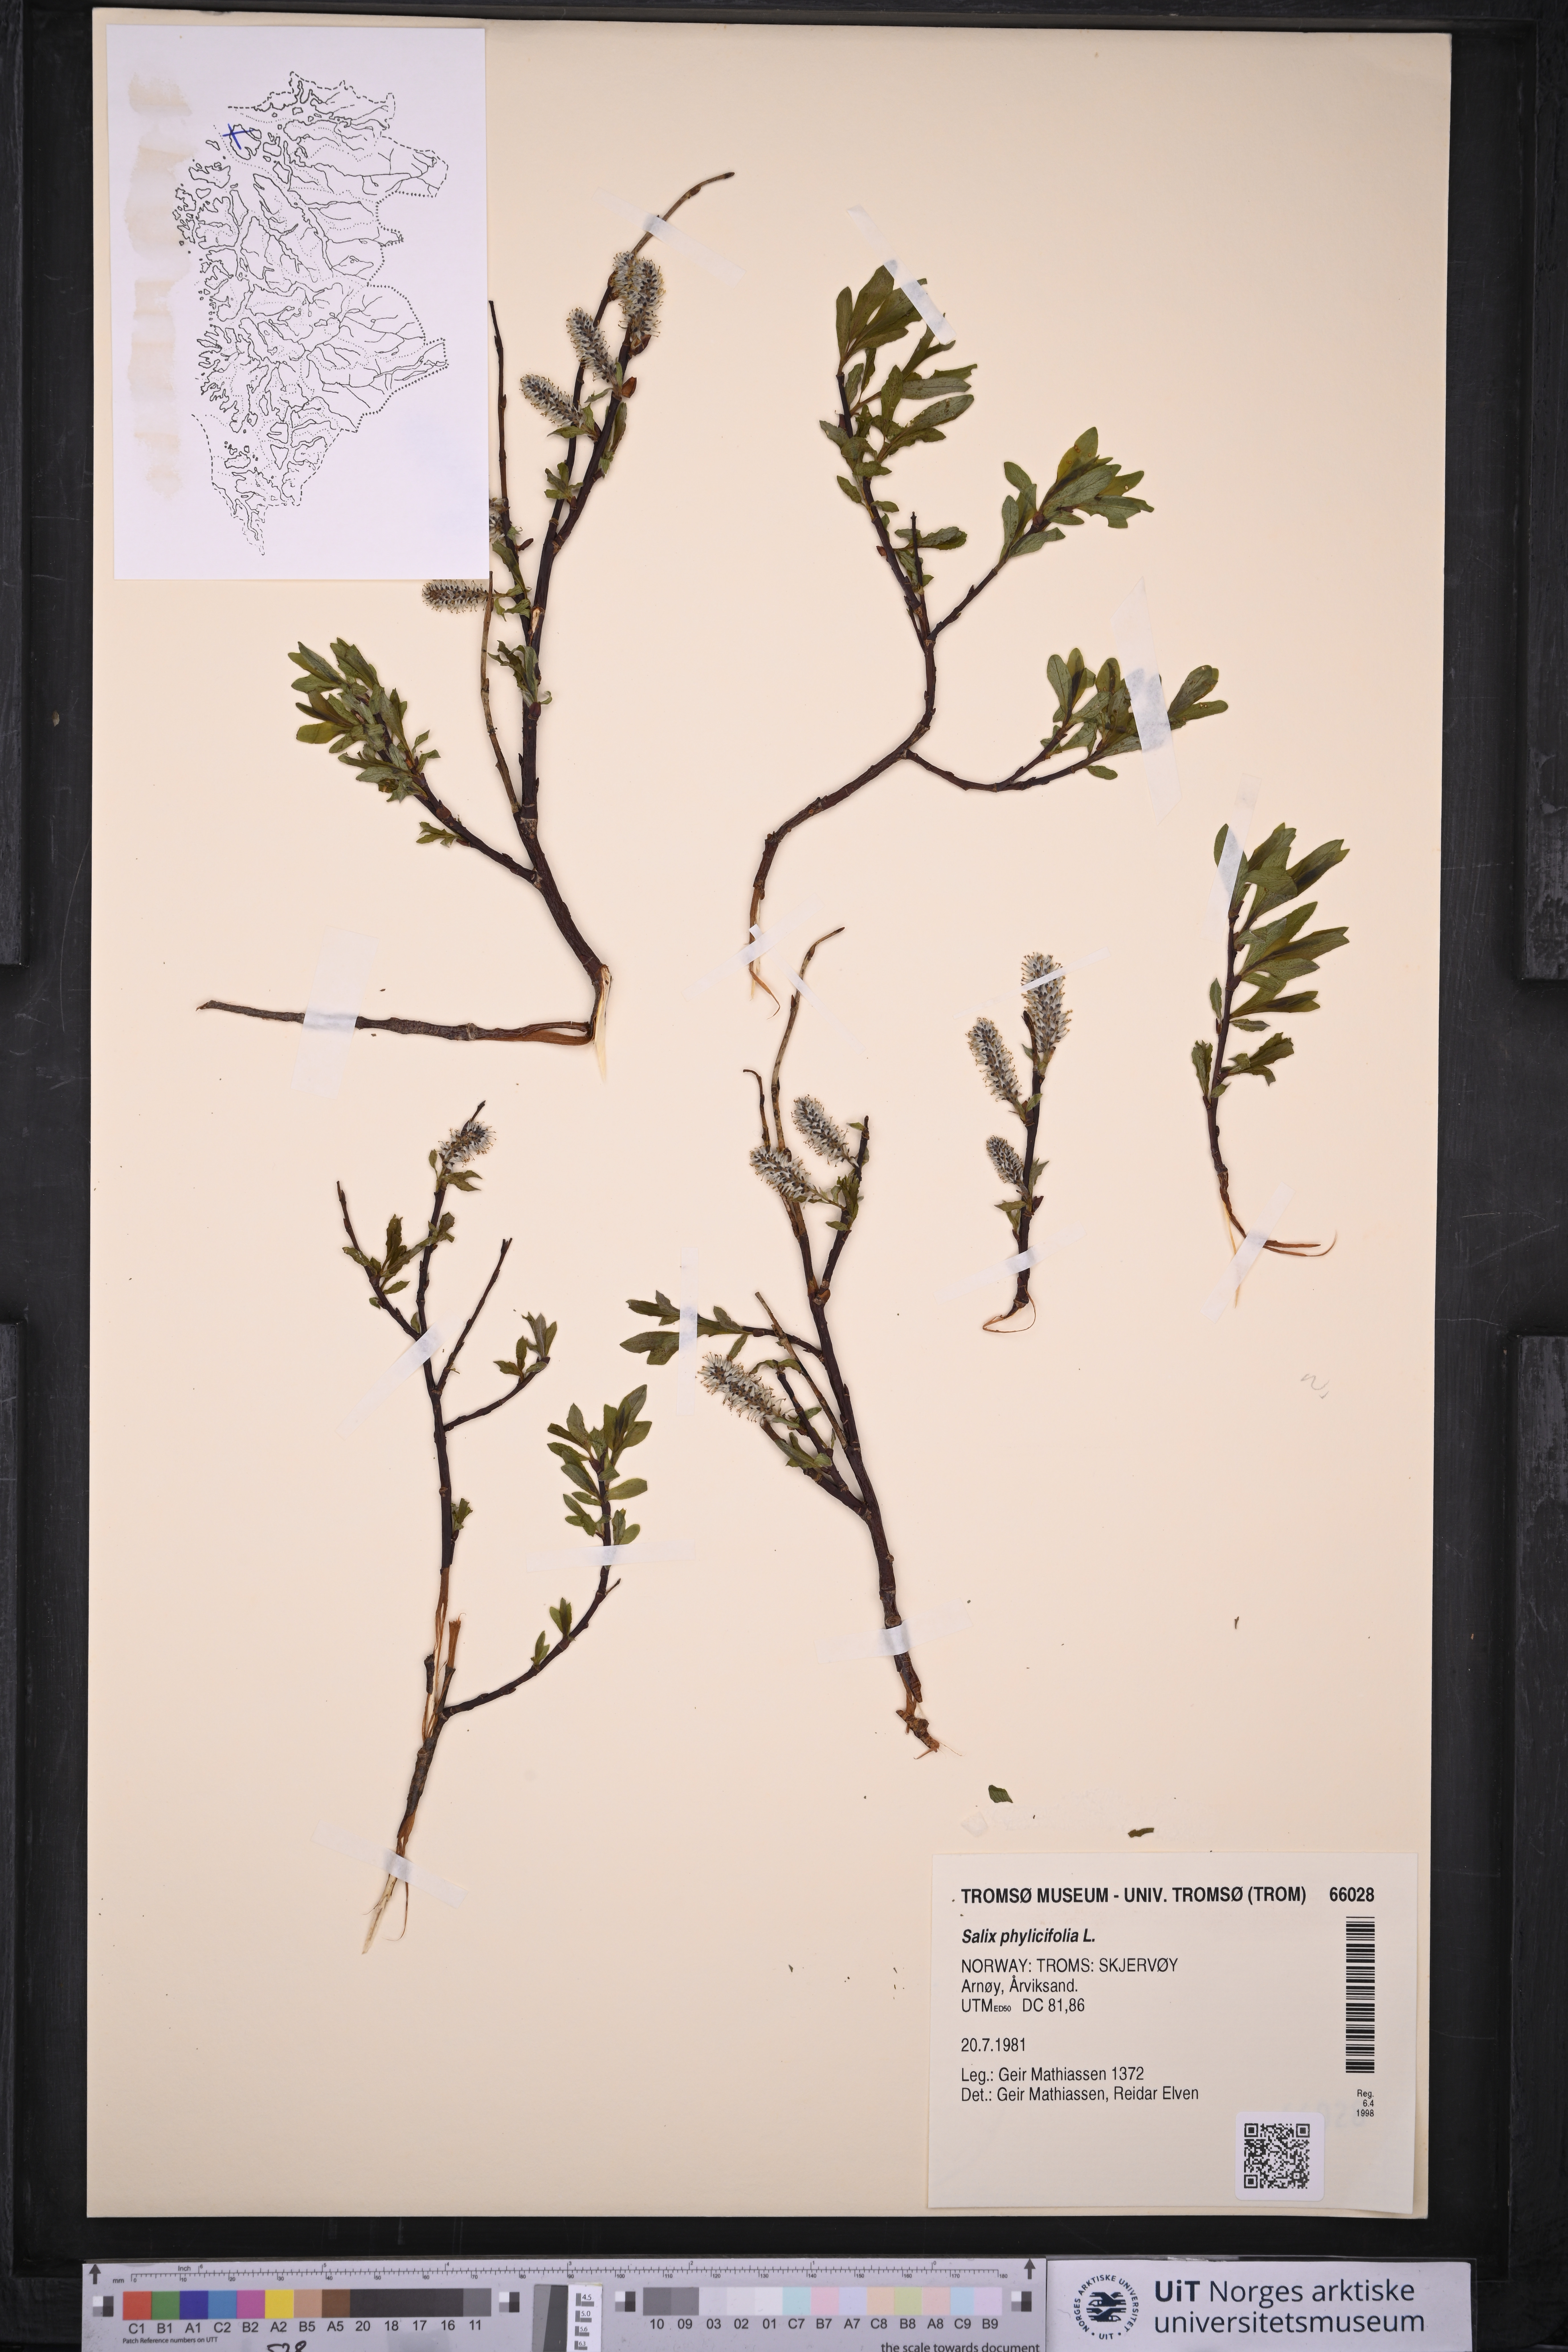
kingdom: Plantae
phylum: Tracheophyta
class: Magnoliopsida
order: Malpighiales
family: Salicaceae
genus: Salix
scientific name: Salix phylicifolia
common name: Tea-leaved willow
